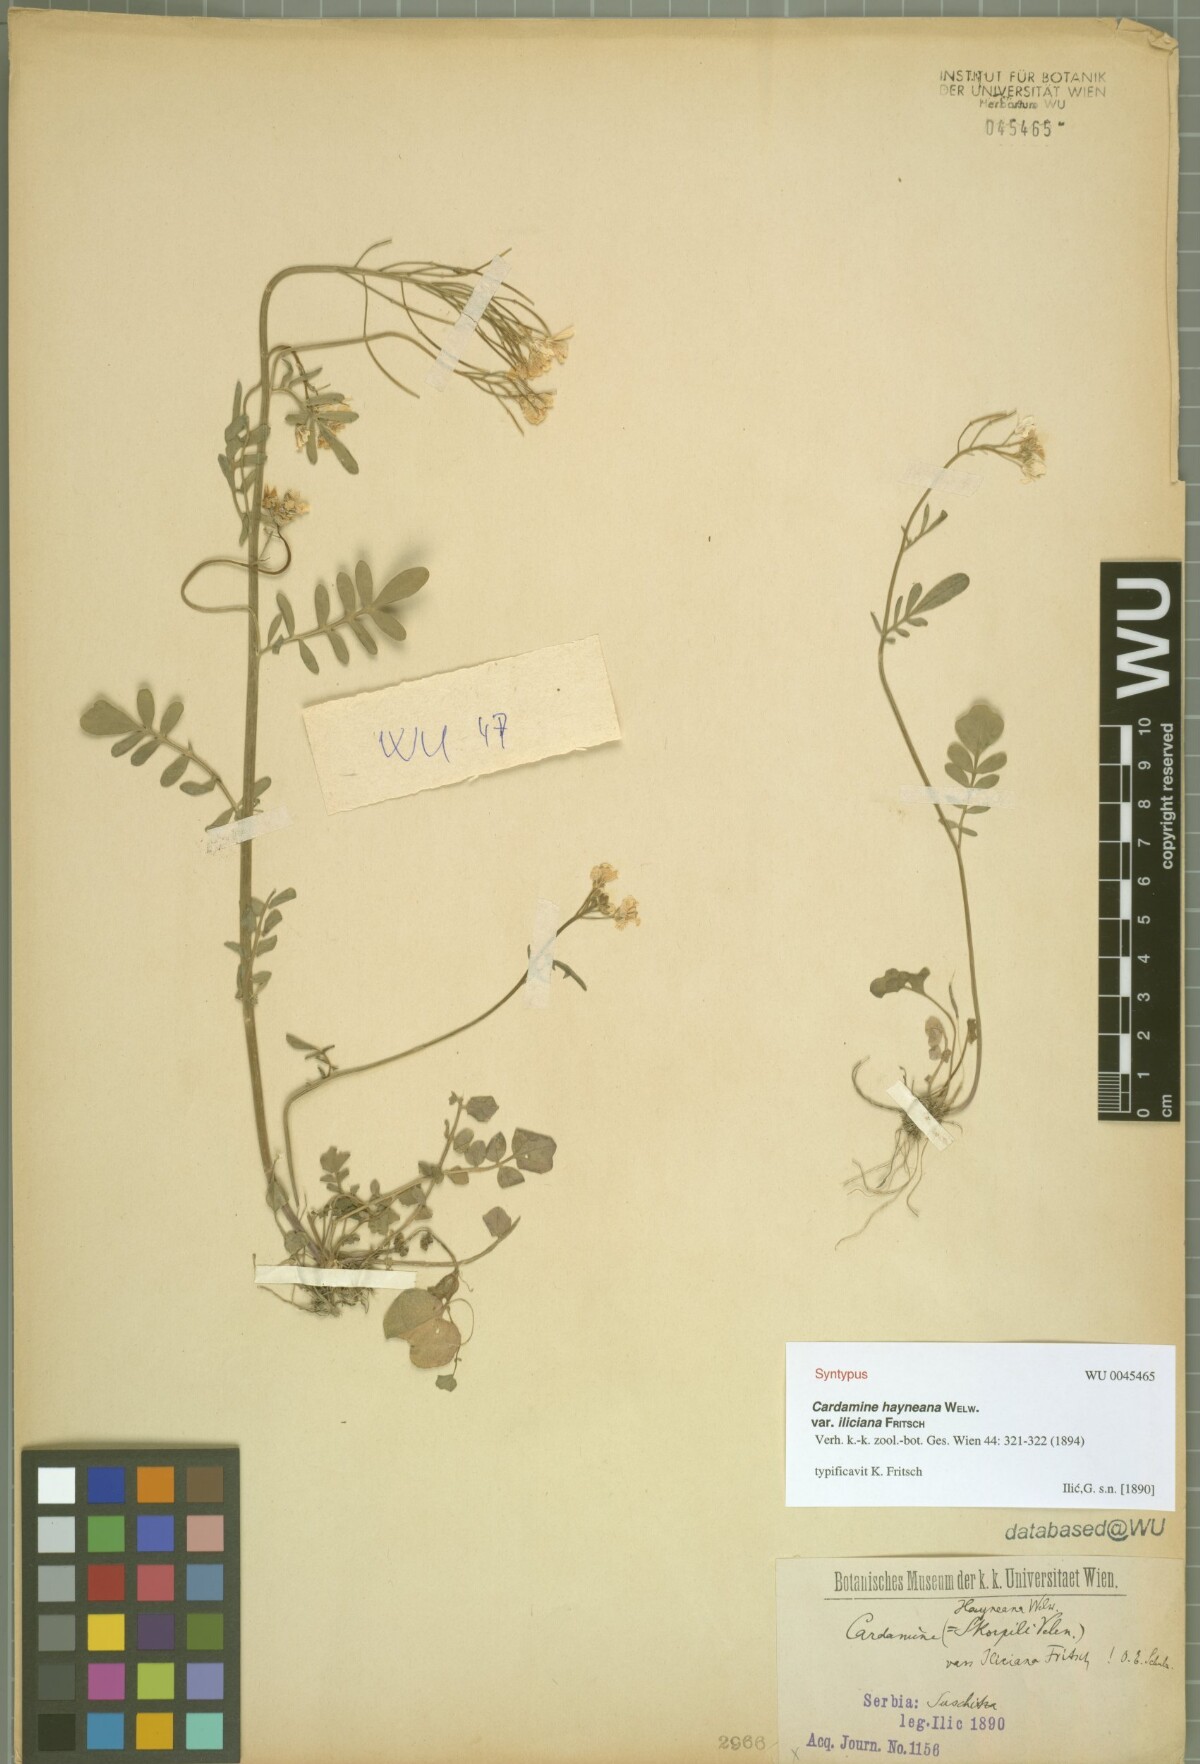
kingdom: Plantae
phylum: Tracheophyta
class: Magnoliopsida
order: Brassicales
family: Brassicaceae
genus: Cardamine
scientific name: Cardamine pratensis
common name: Cuckoo flower
